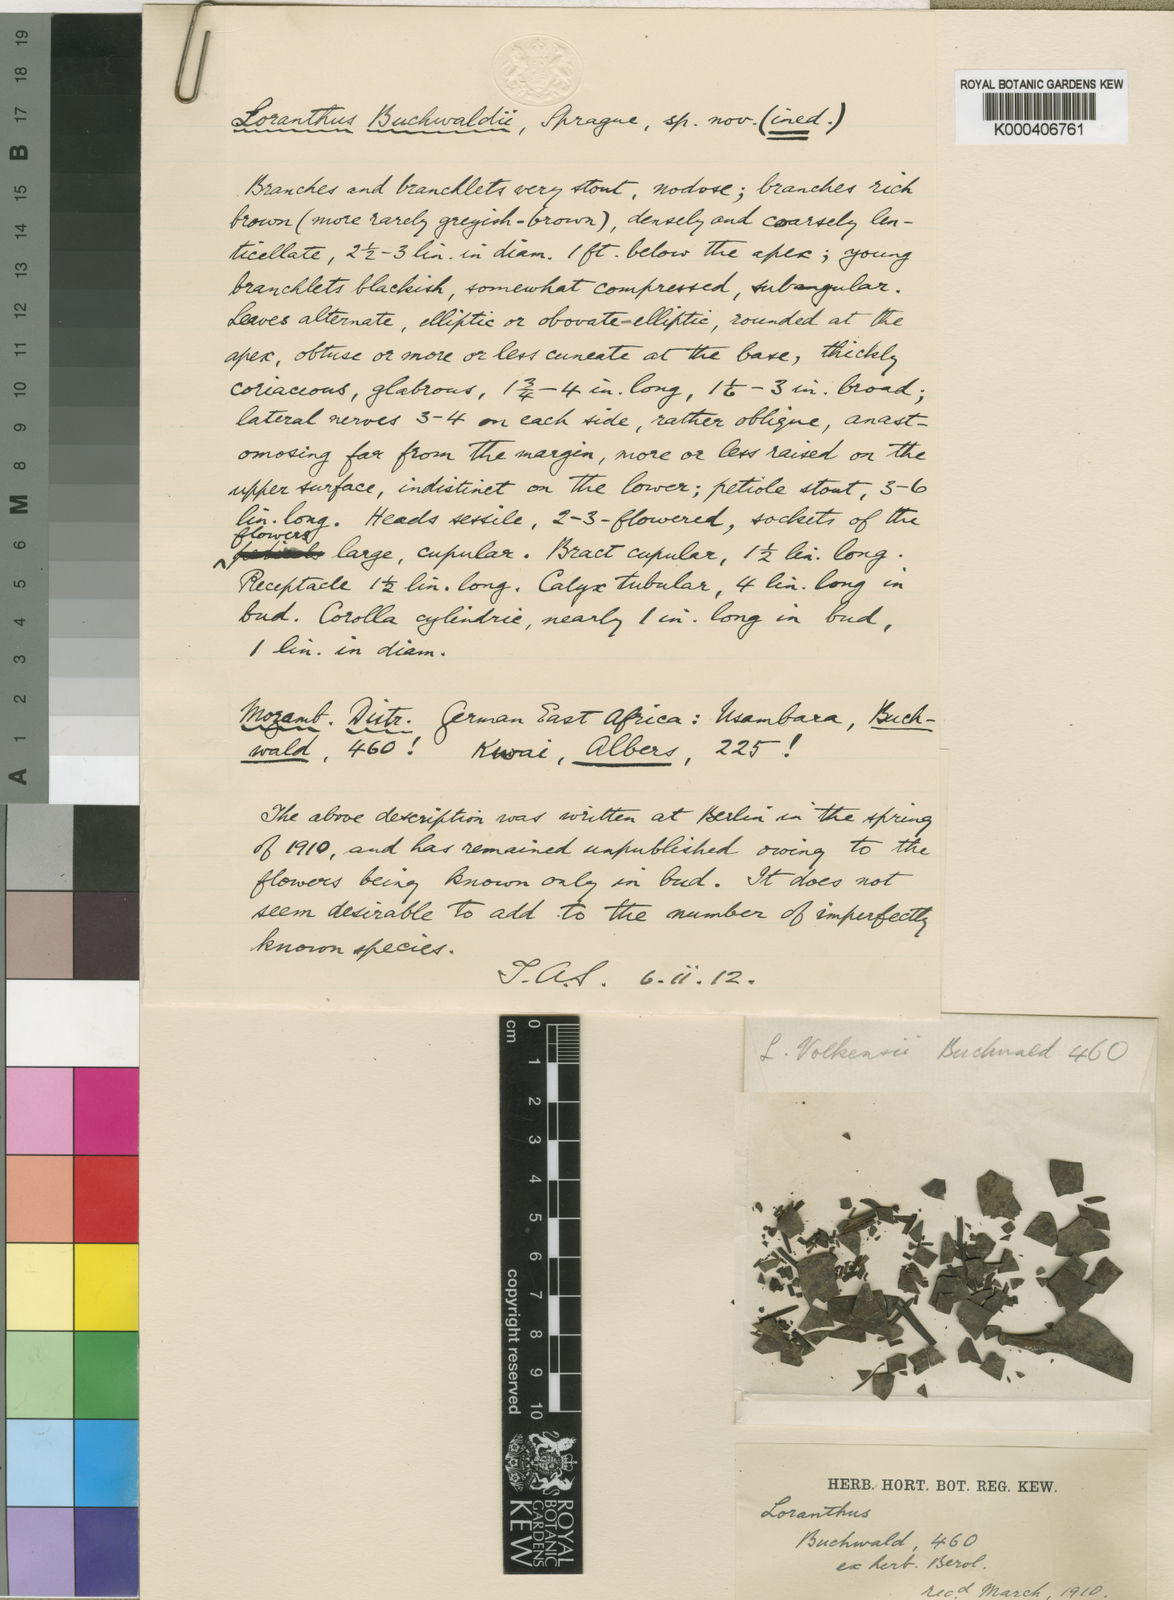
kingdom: Plantae
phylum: Tracheophyta
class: Magnoliopsida
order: Santalales
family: Loranthaceae
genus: Agelanthus
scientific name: Agelanthus validus
